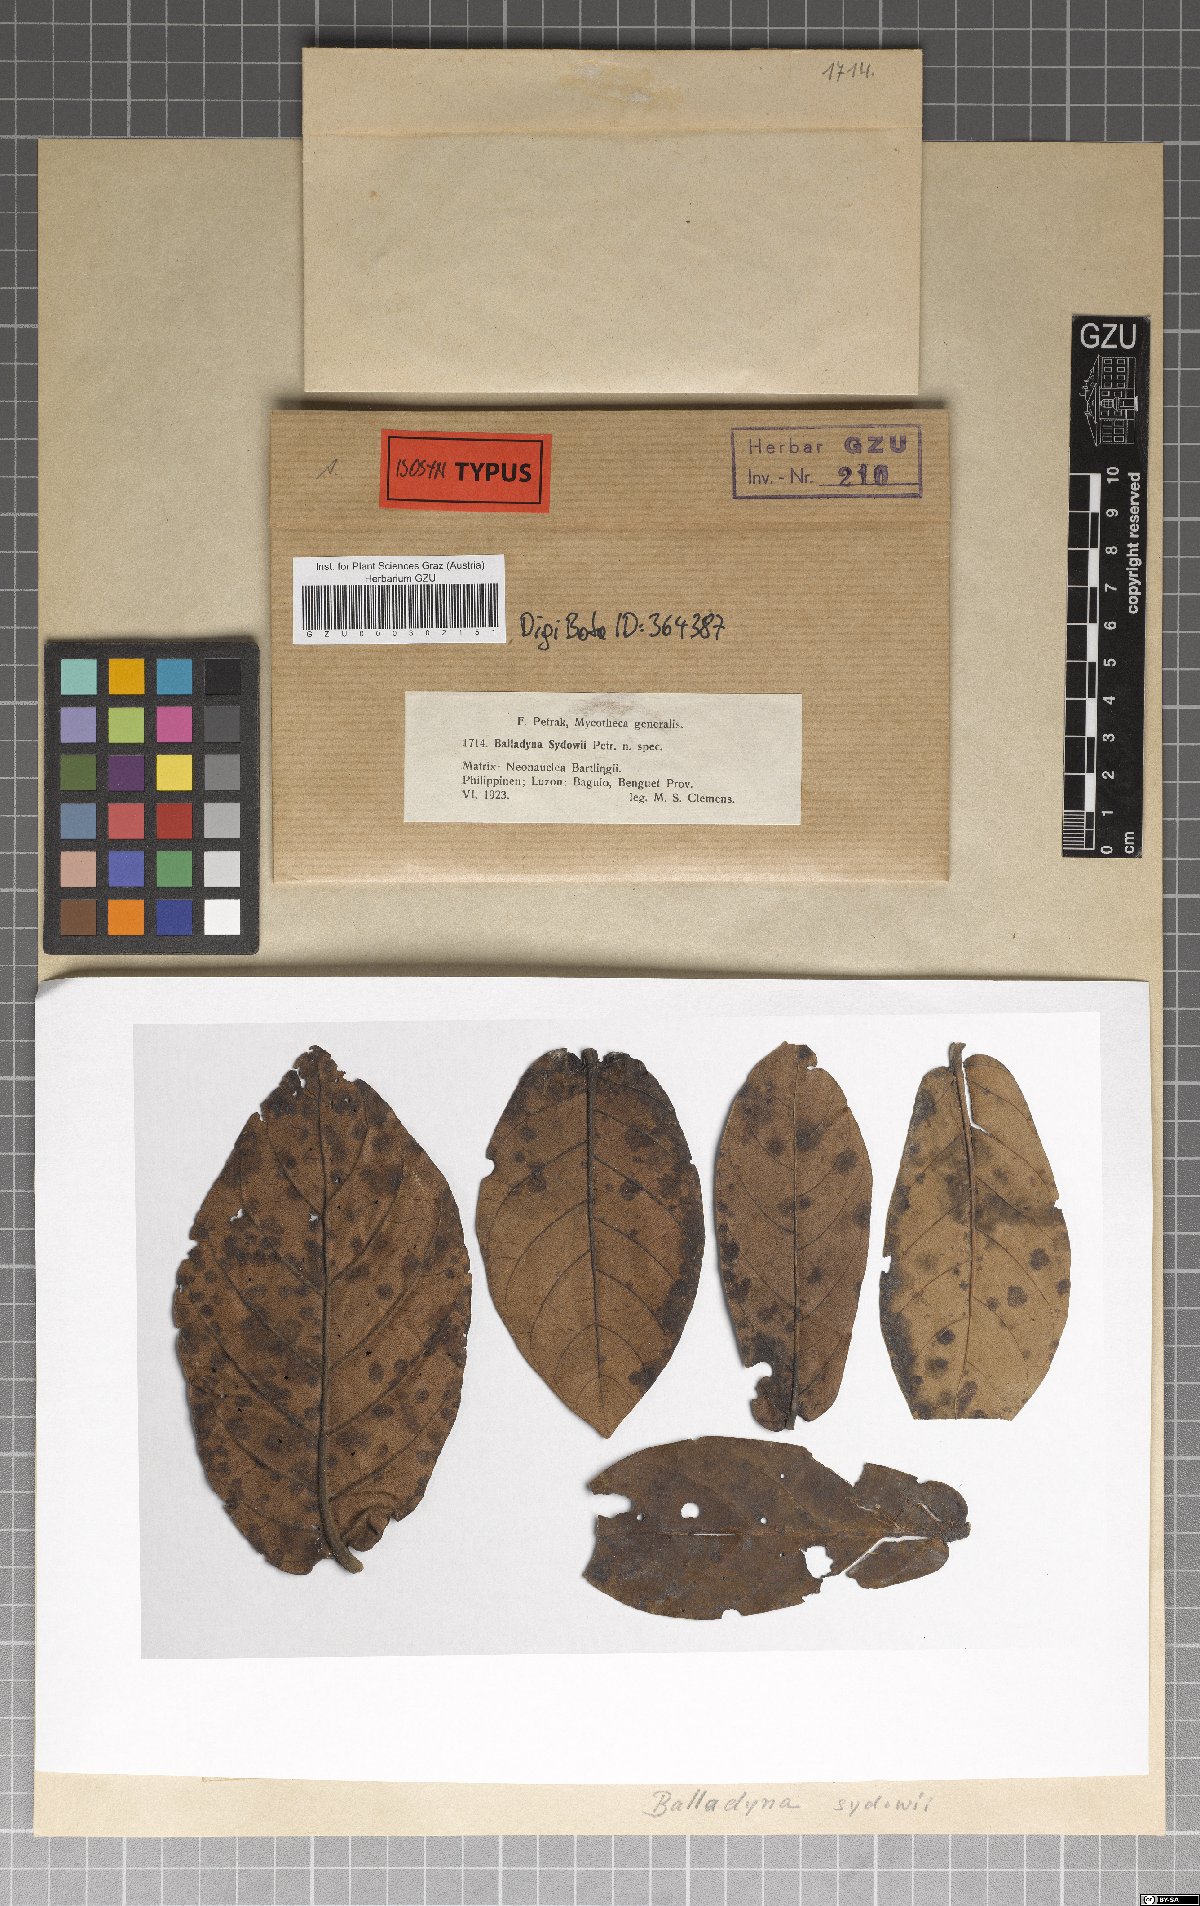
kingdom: Fungi
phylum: Ascomycota
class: Dothideomycetes
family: Balladynaceae
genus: Balladyna
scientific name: Balladyna sydowii
